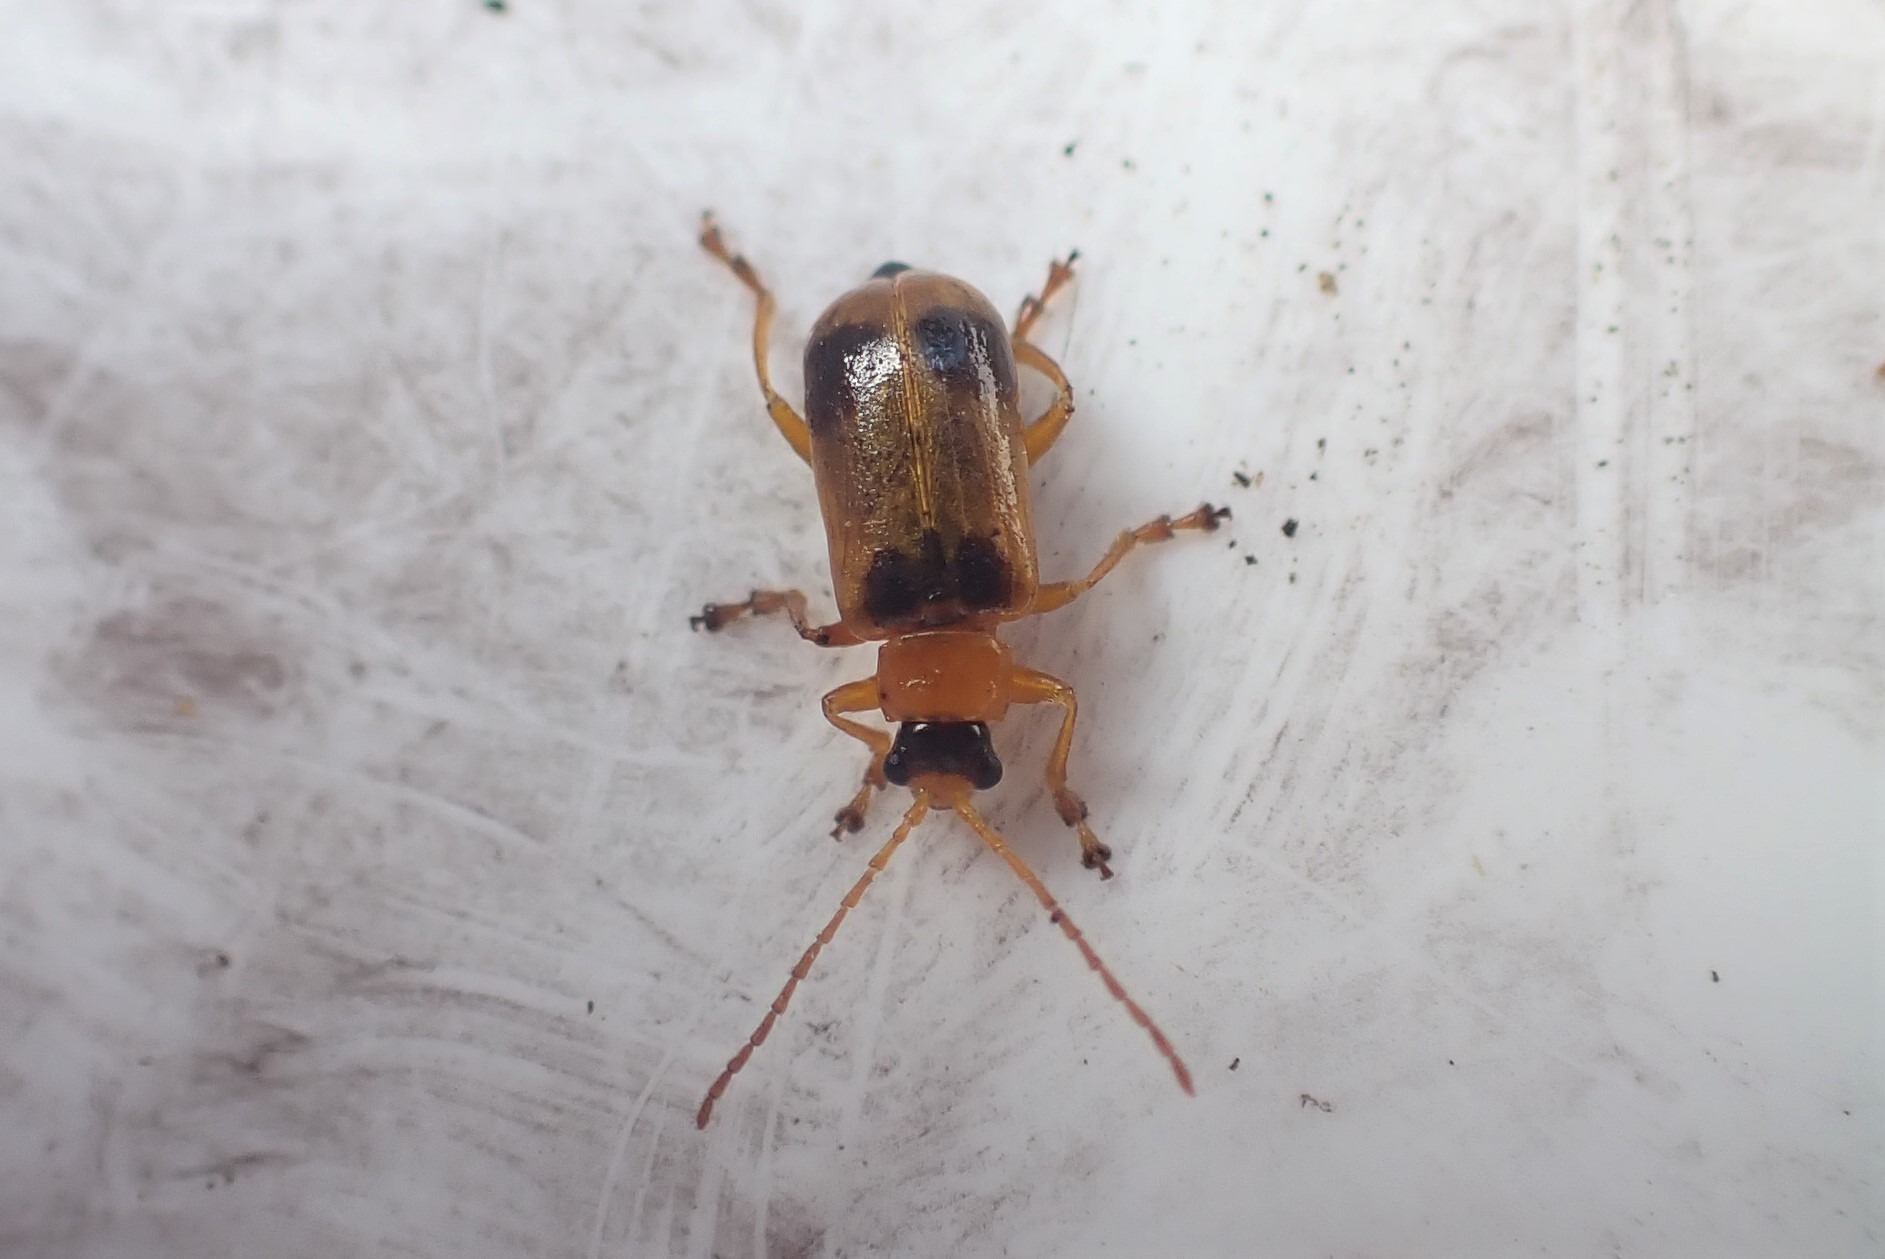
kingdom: Animalia
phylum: Arthropoda
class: Insecta
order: Coleoptera
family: Chrysomelidae
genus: Phyllobrotica
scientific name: Phyllobrotica quadrimaculata
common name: Sortplettet bladbille
